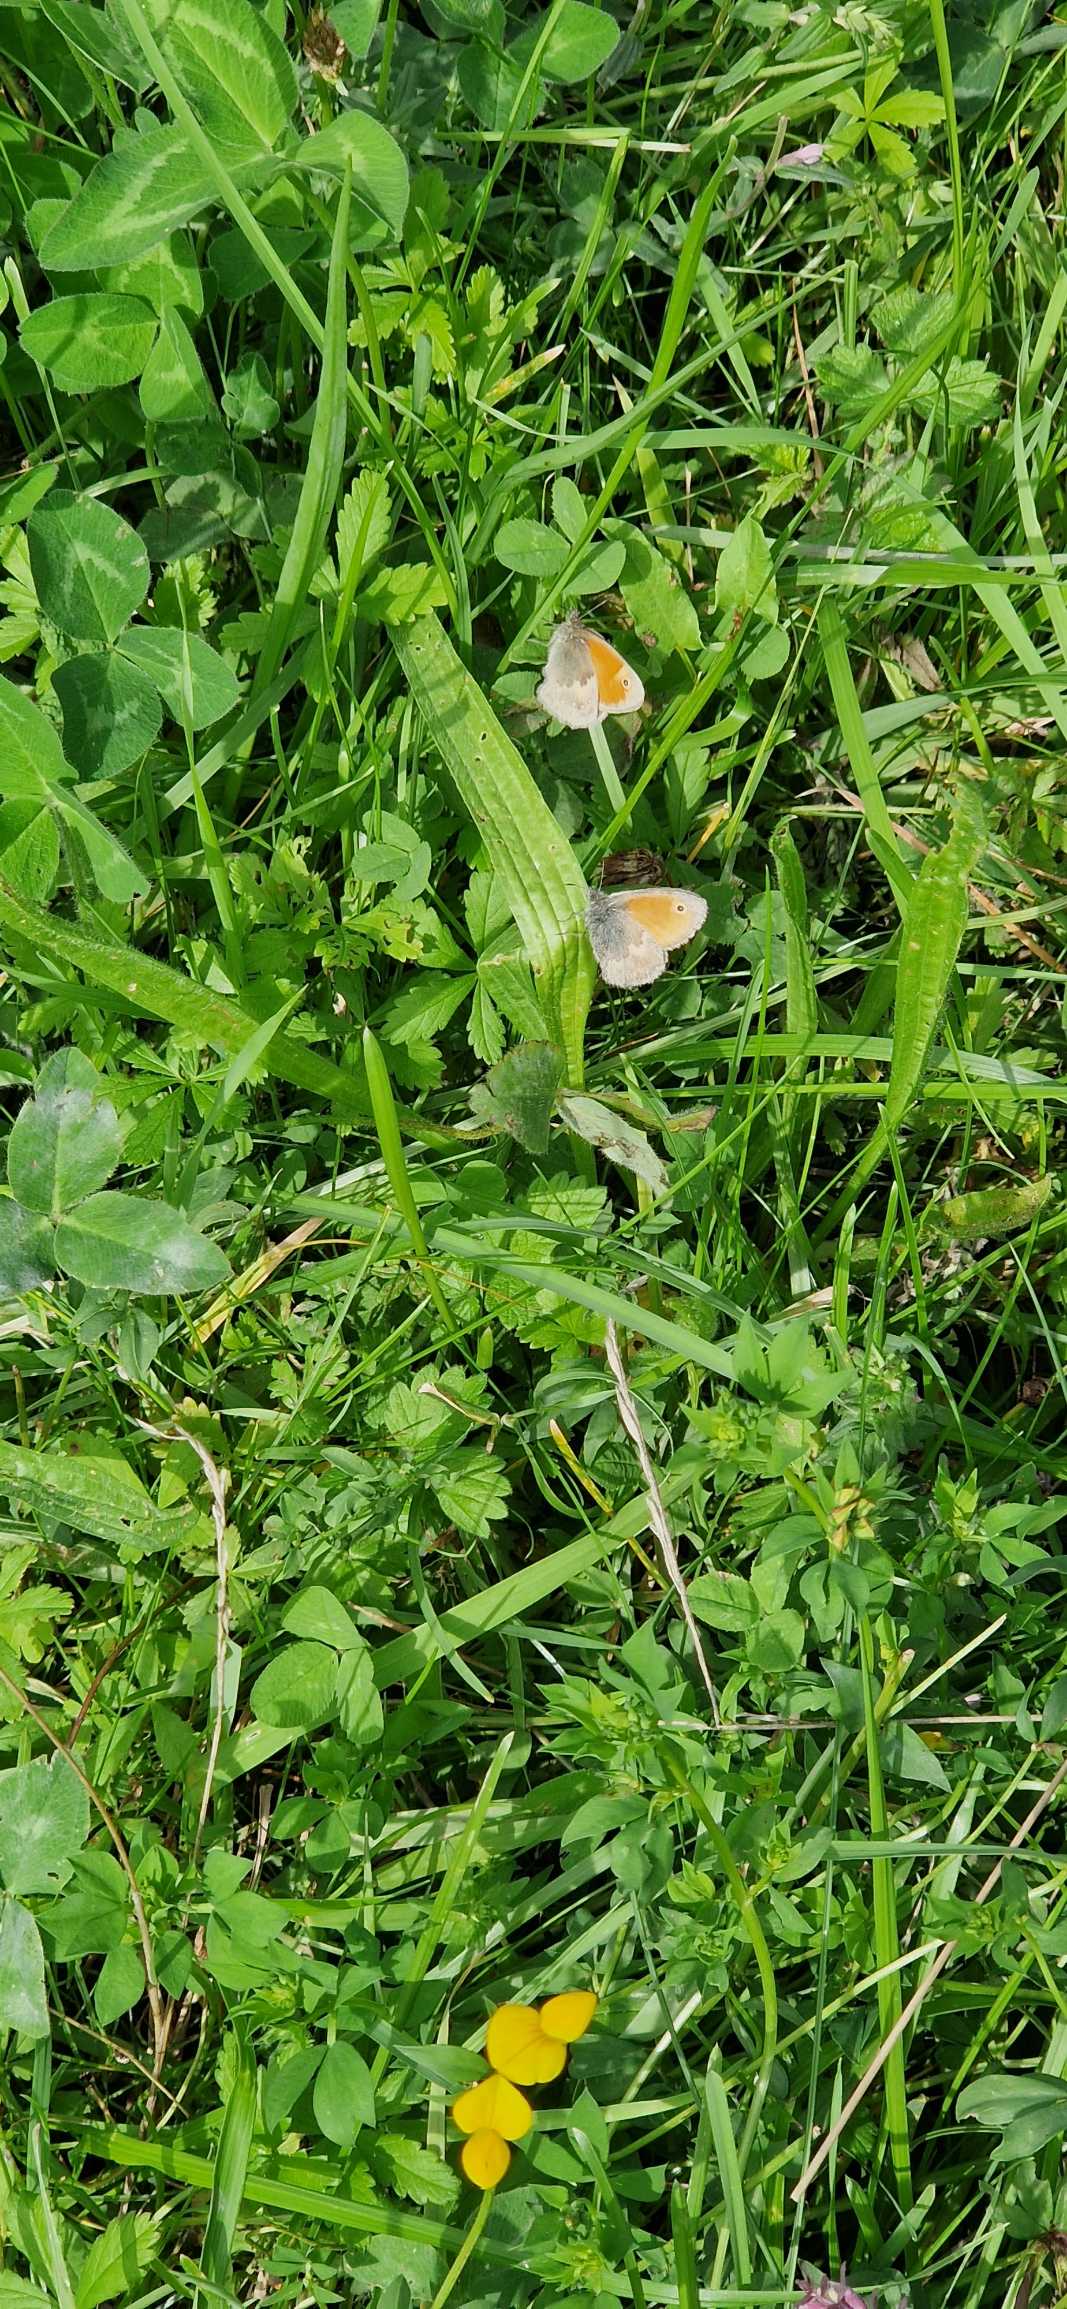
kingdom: Animalia
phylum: Arthropoda
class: Insecta
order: Lepidoptera
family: Nymphalidae
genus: Coenonympha
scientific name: Coenonympha pamphilus
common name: Okkergul randøje
